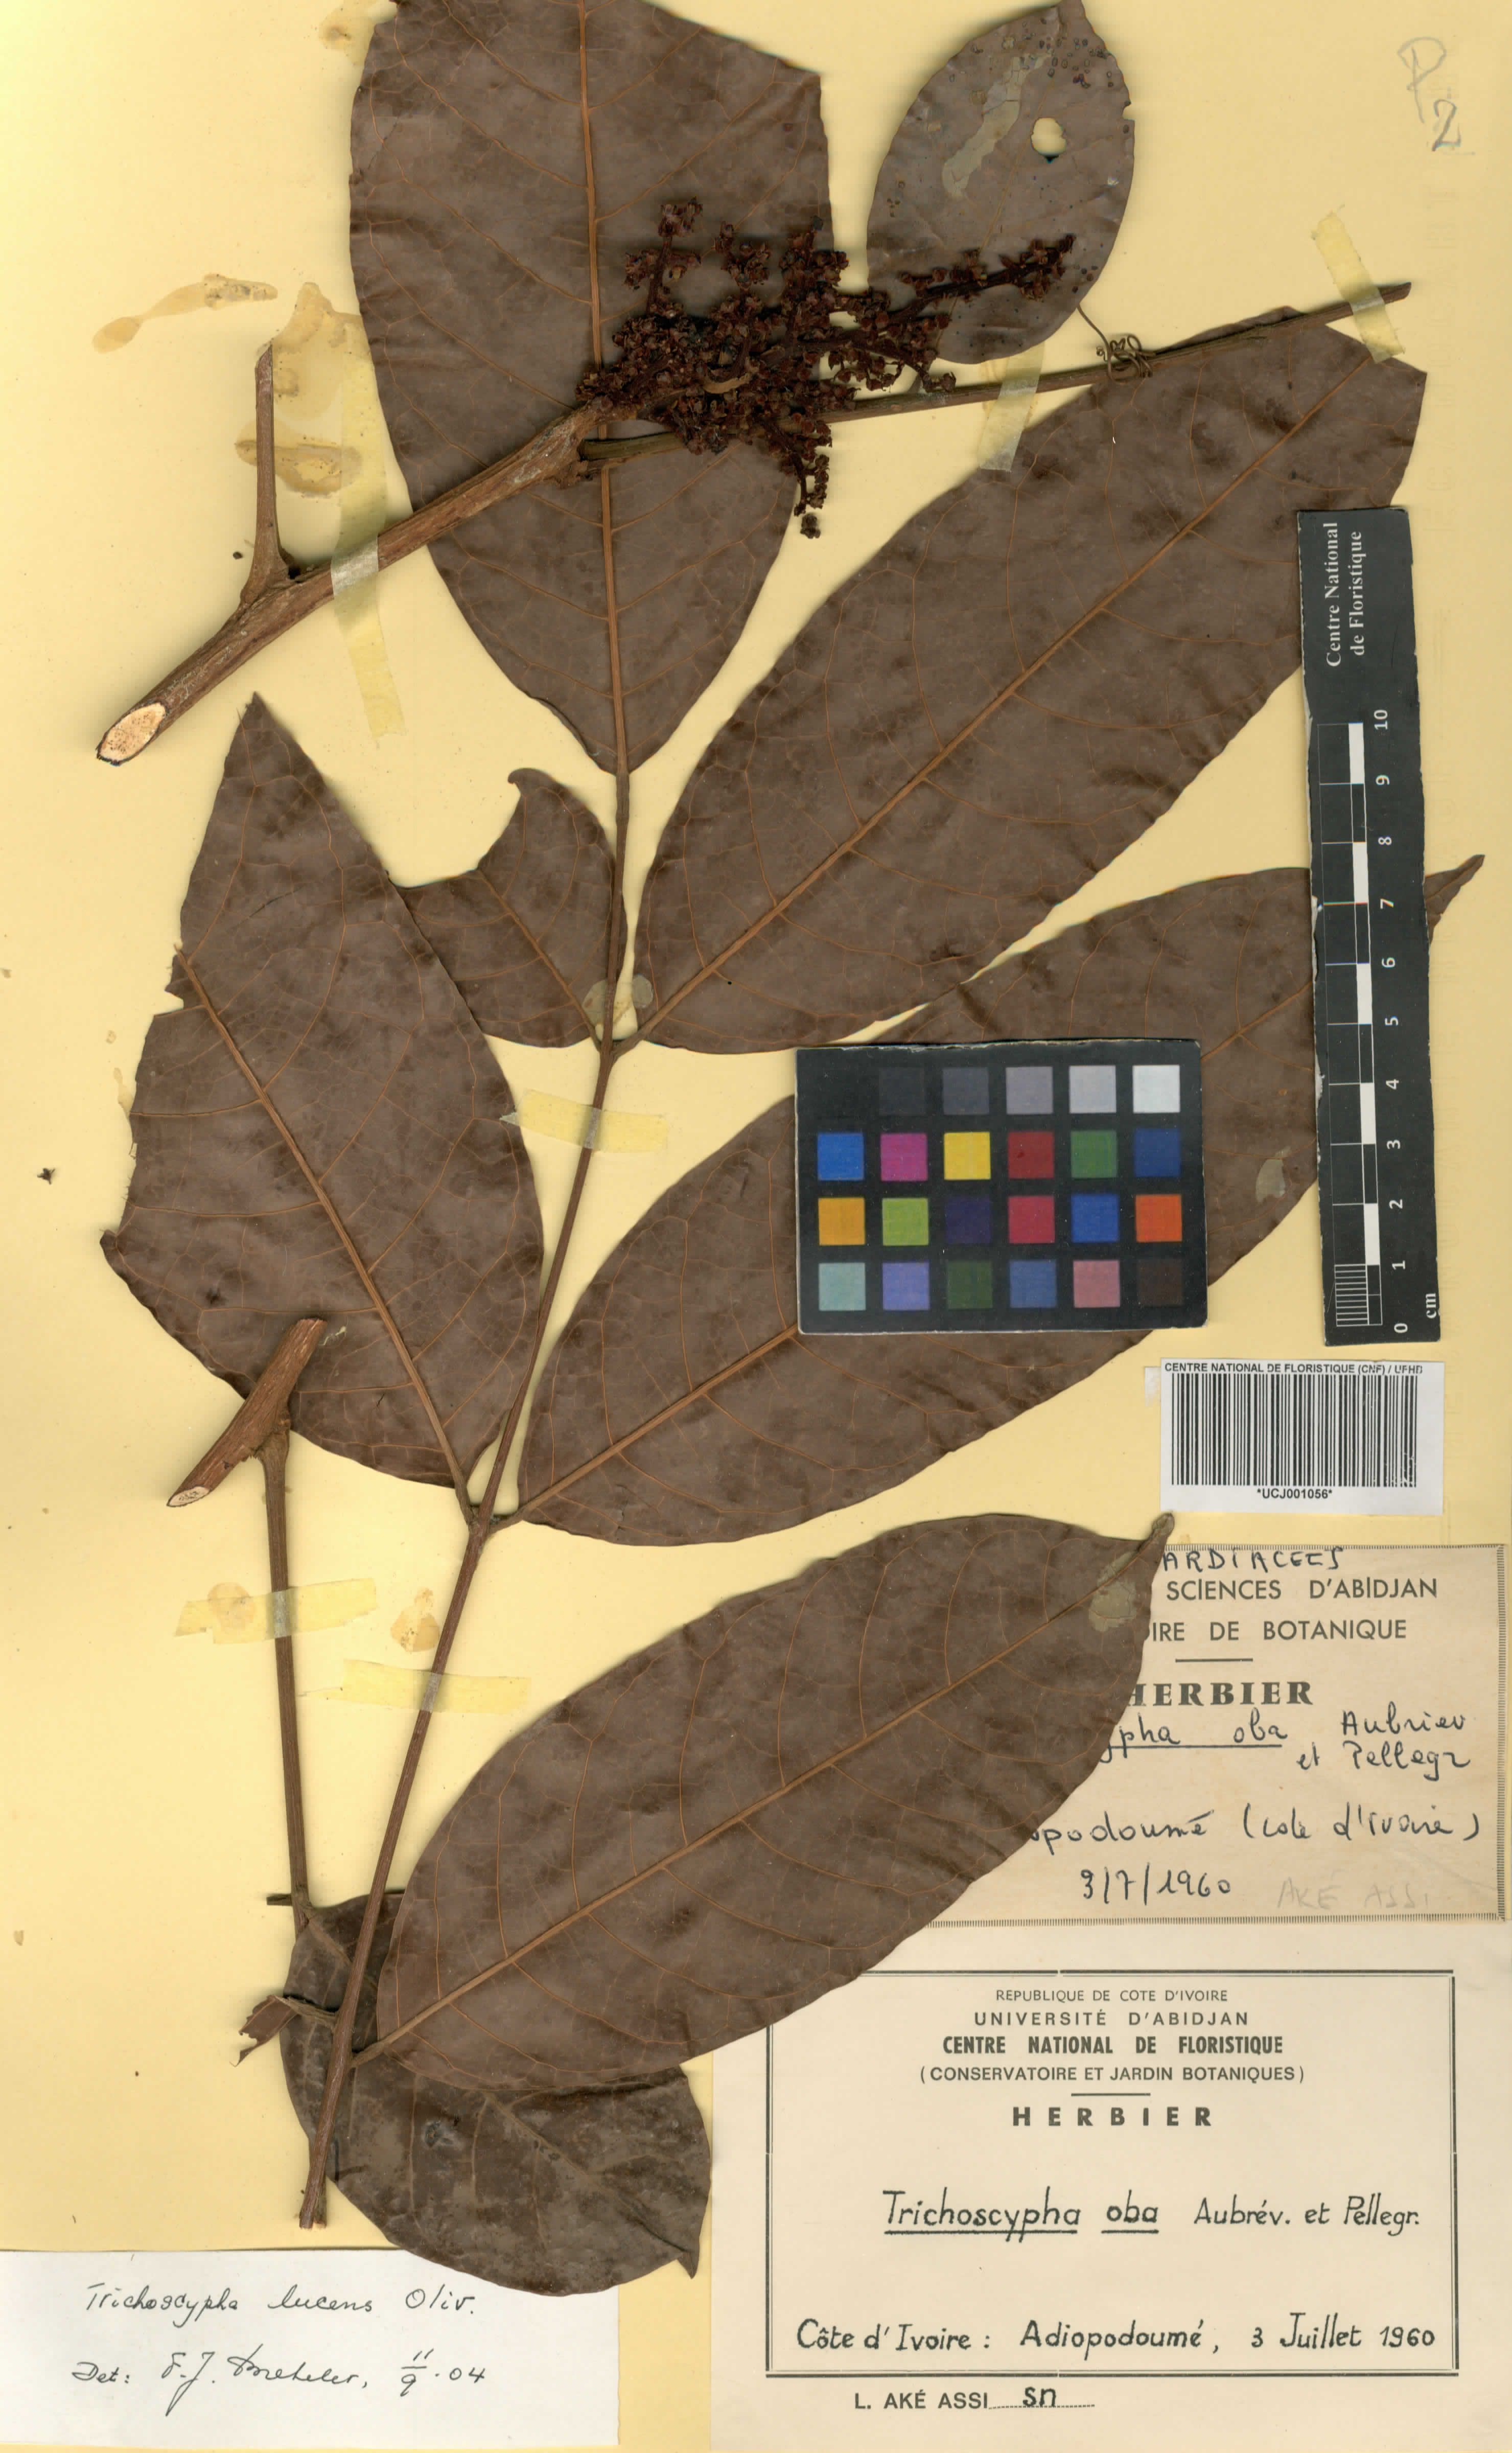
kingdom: Plantae
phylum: Tracheophyta
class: Magnoliopsida
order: Sapindales
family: Anacardiaceae
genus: Trichoscypha
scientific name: Trichoscypha lucens
